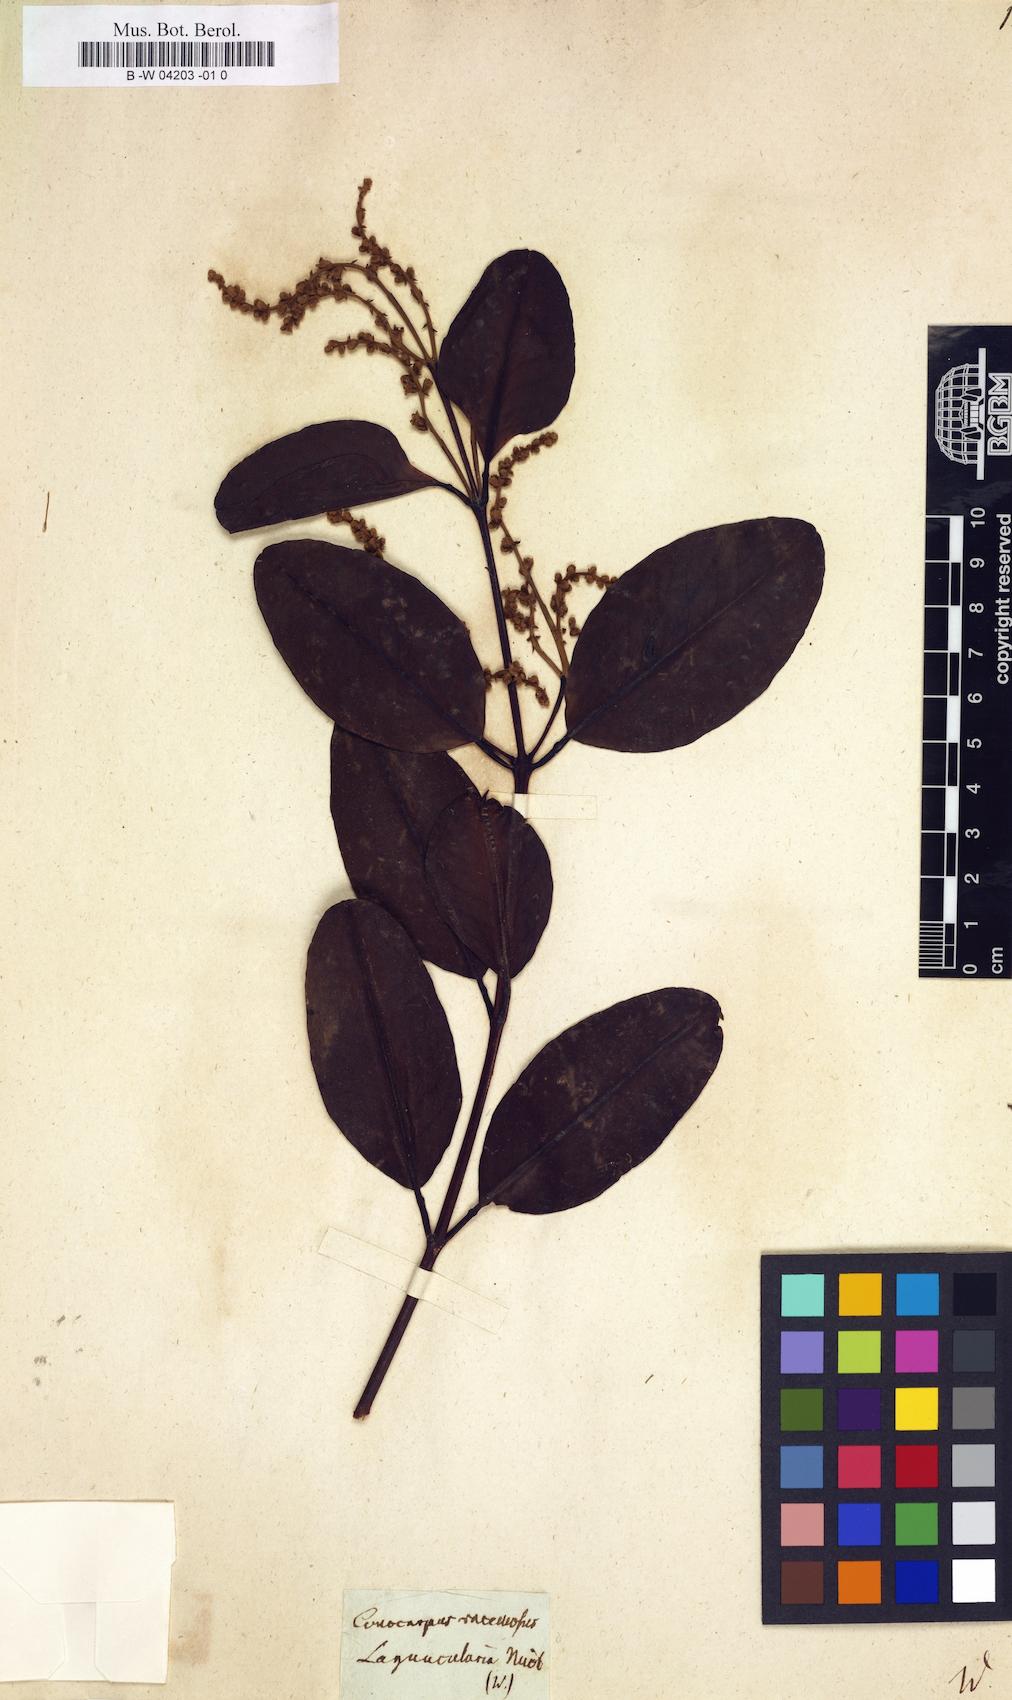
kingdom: Plantae
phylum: Tracheophyta
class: Magnoliopsida
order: Myrtales
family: Combretaceae
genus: Laguncularia
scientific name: Laguncularia racemosa
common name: White mangrove
